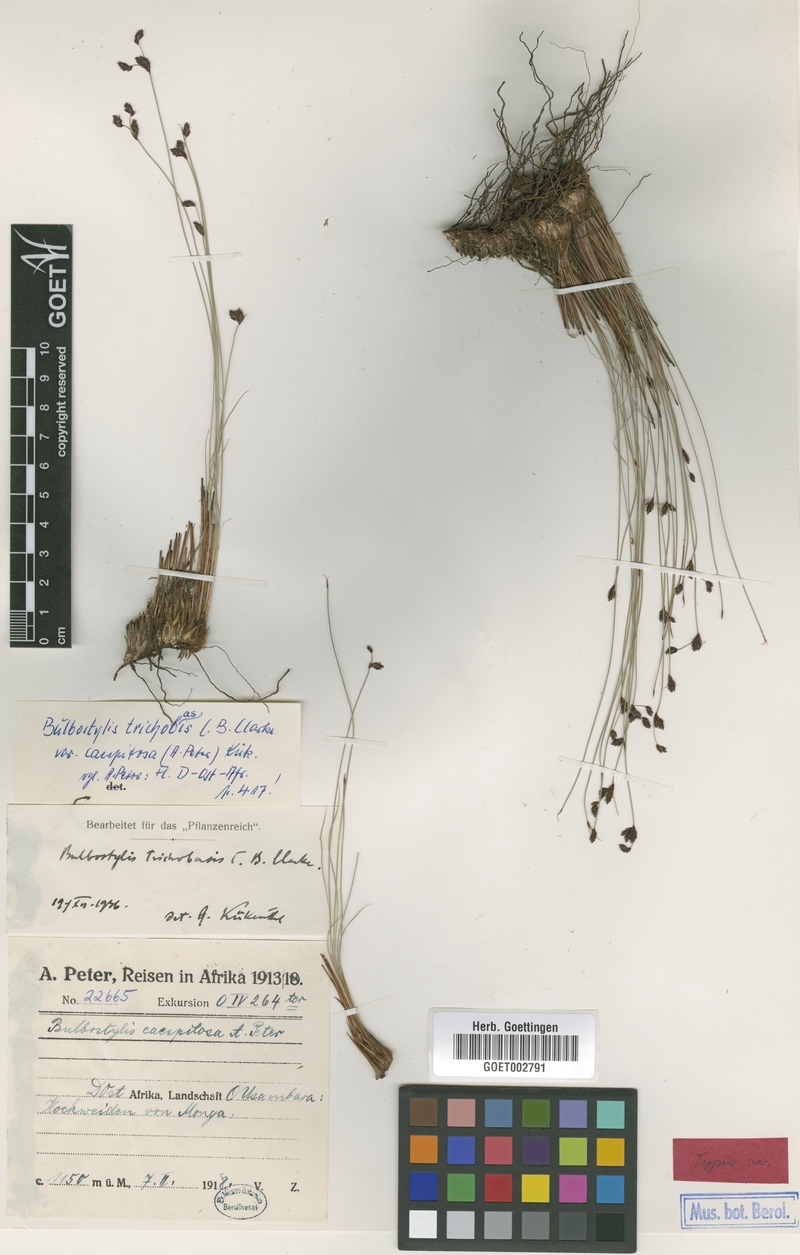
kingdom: Plantae
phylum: Tracheophyta
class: Liliopsida
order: Poales
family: Cyperaceae
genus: Bulbostylis
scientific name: Bulbostylis oritrephes
